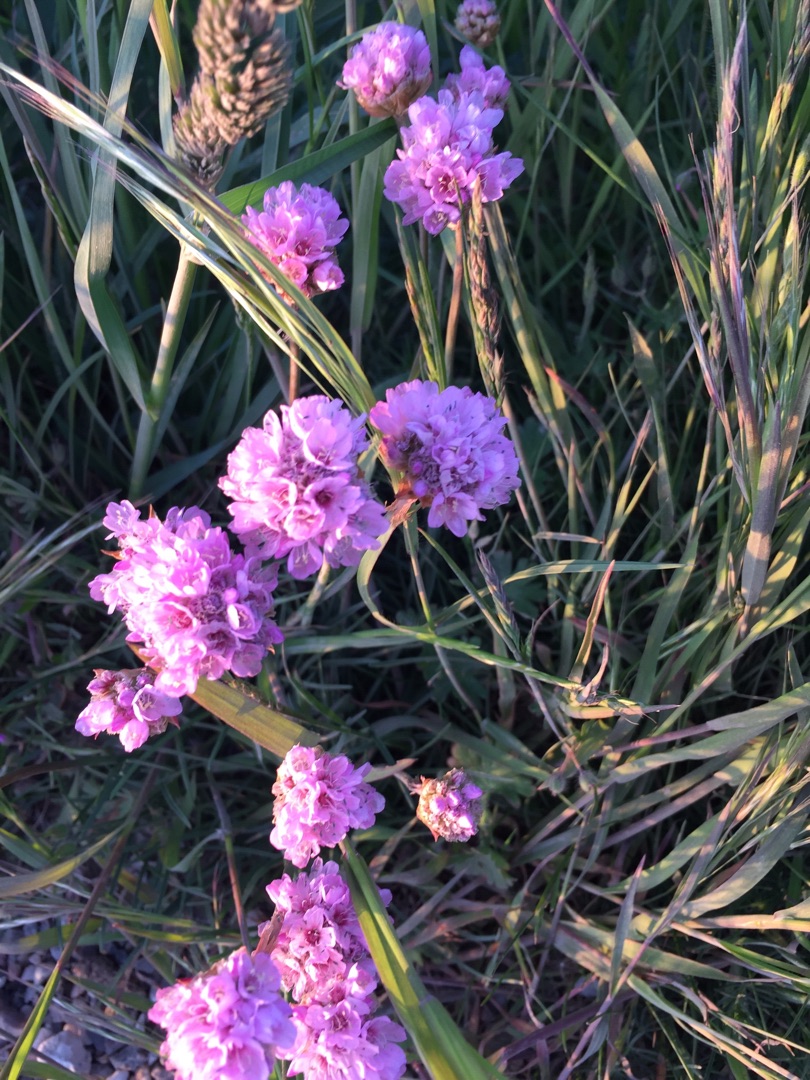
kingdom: Plantae
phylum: Tracheophyta
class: Magnoliopsida
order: Caryophyllales
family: Plumbaginaceae
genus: Armeria
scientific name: Armeria maritima
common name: Engelskgræs
